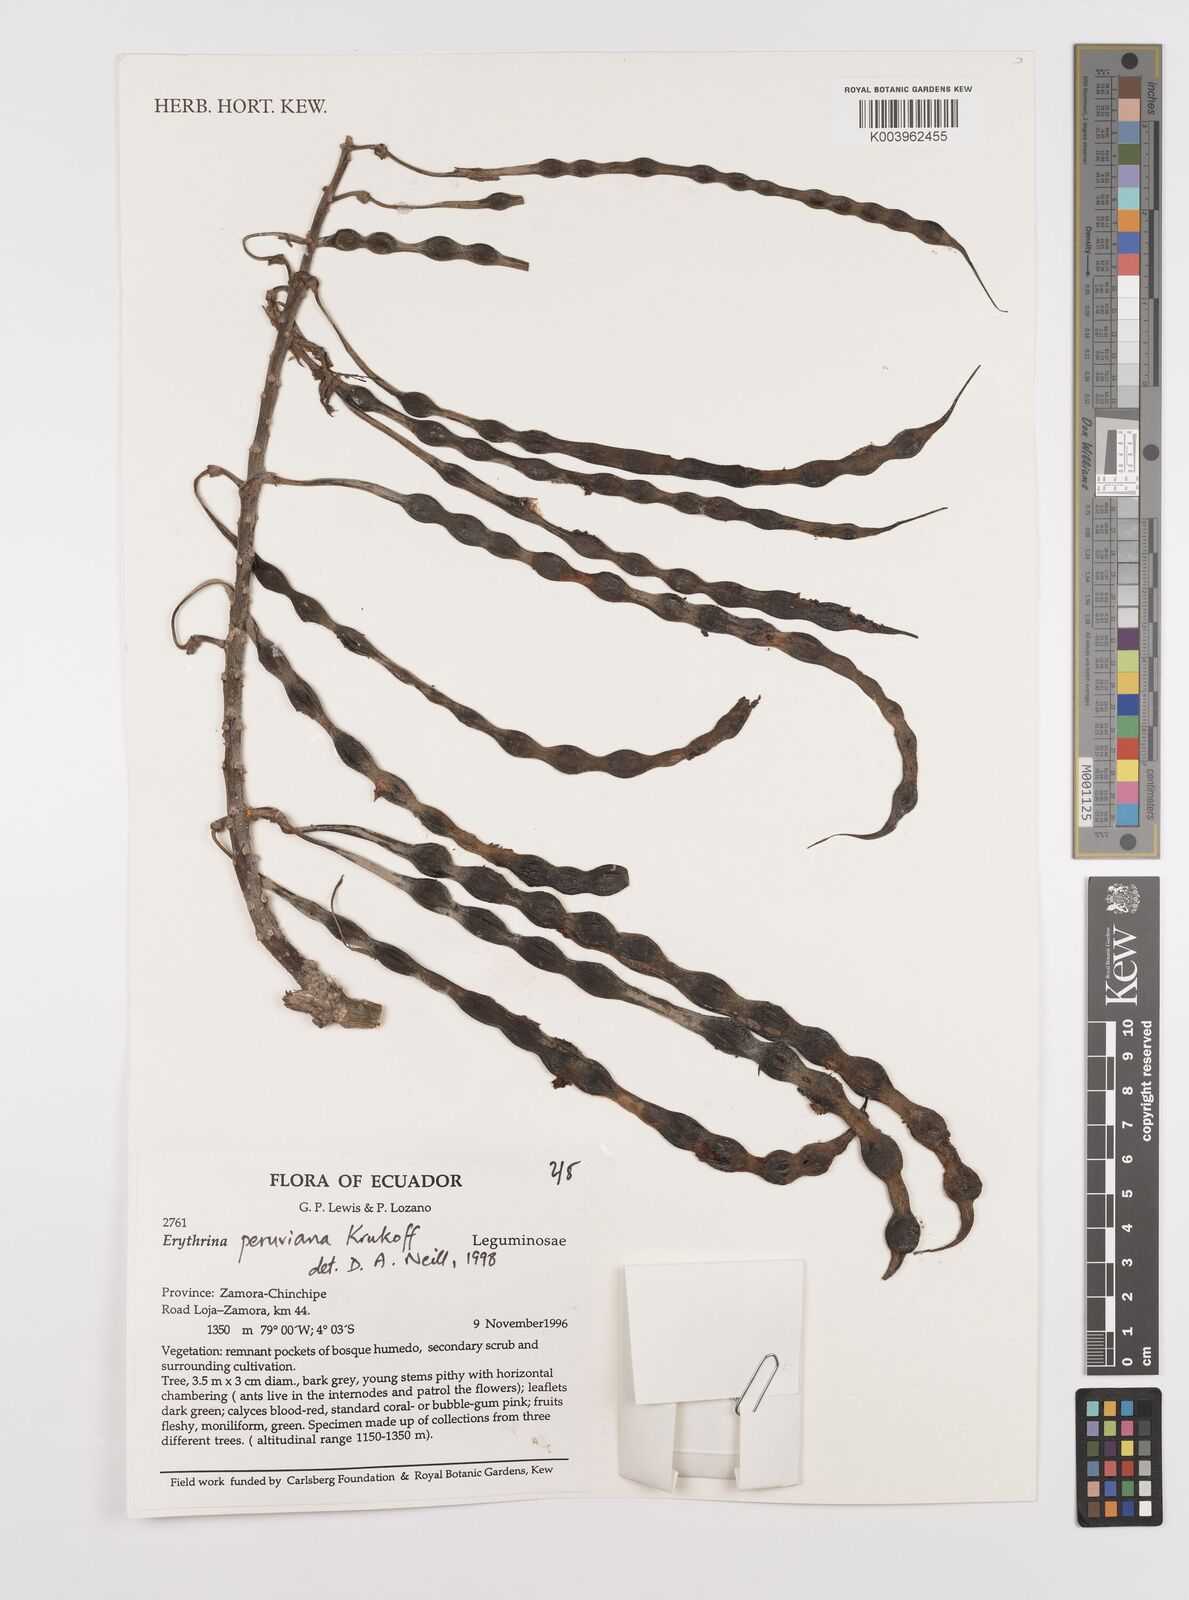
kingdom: Plantae
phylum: Tracheophyta
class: Magnoliopsida
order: Fabales
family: Fabaceae
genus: Erythrina
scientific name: Erythrina peruviana
